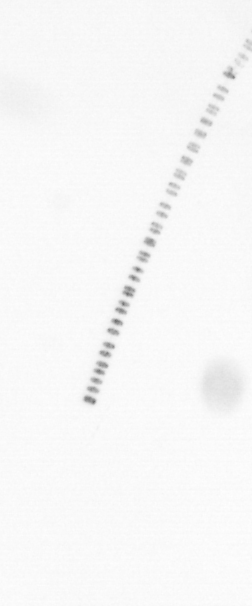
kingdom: Chromista
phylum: Ochrophyta
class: Bacillariophyceae
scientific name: Bacillariophyceae
